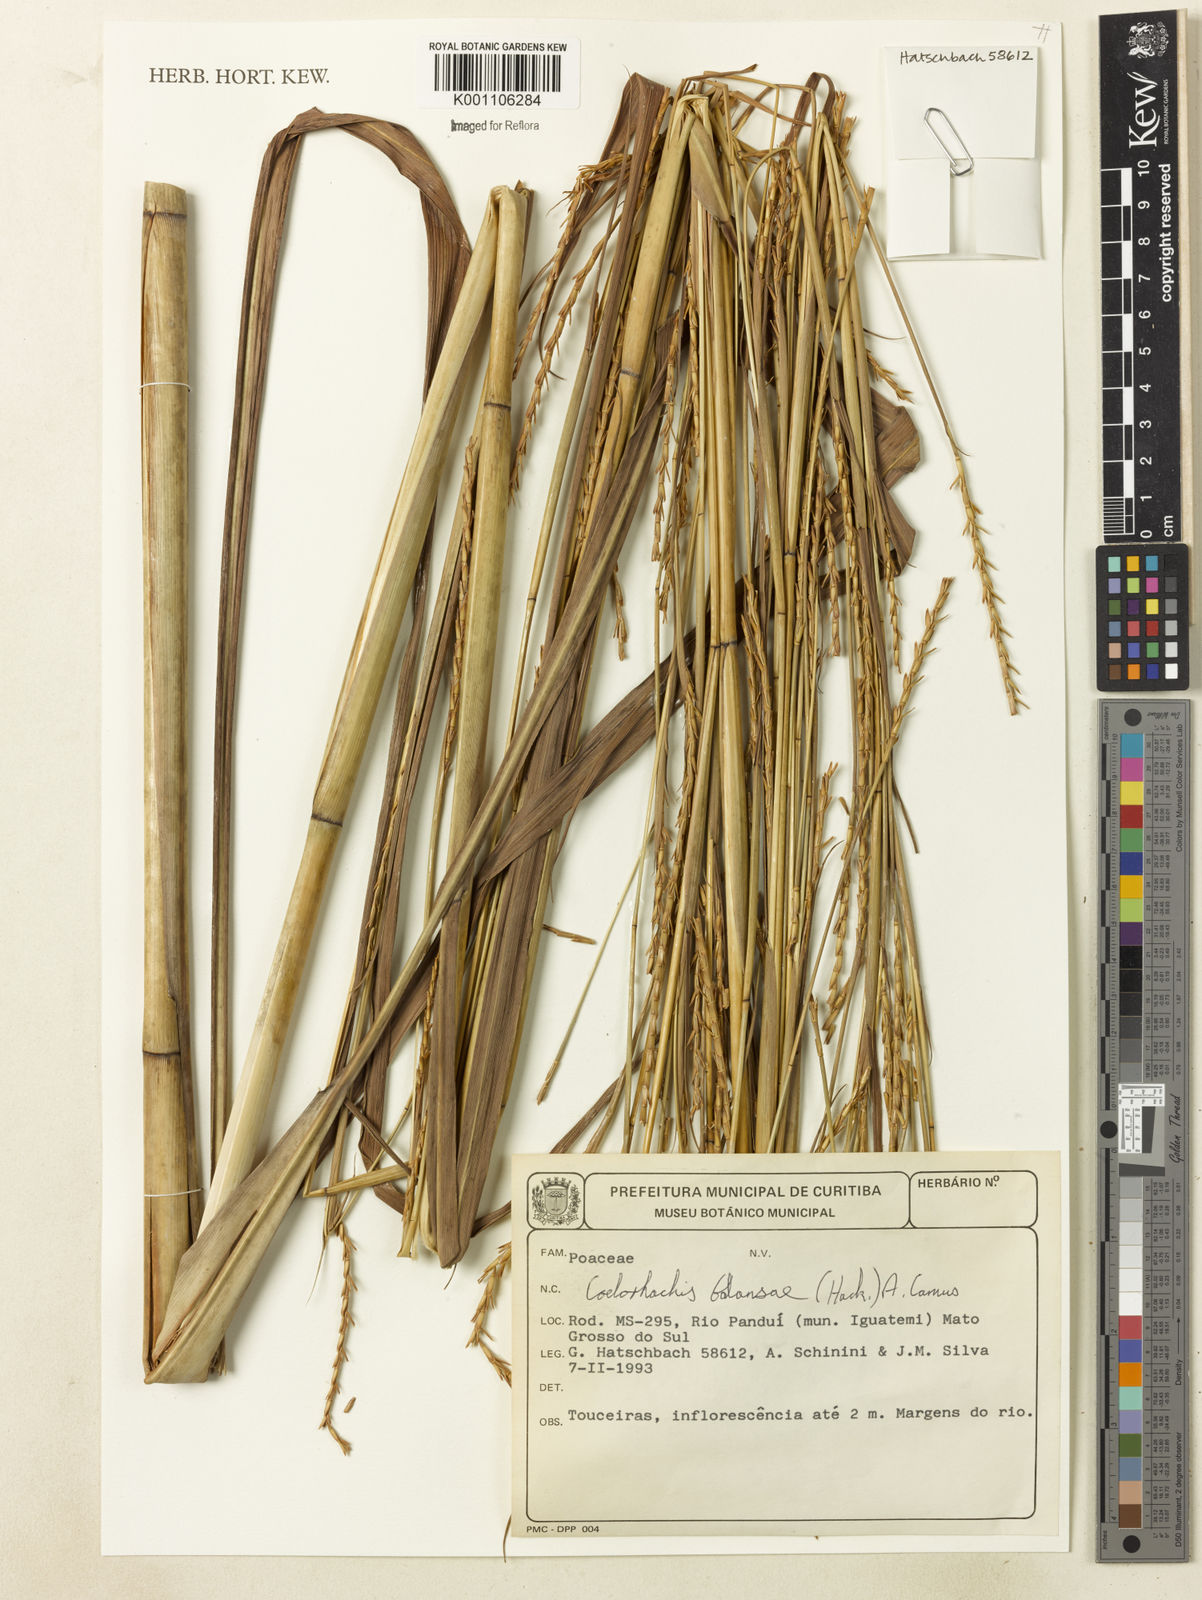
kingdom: Plantae
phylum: Tracheophyta
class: Liliopsida
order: Poales
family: Poaceae
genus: Rottboellia
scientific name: Rottboellia balansae
